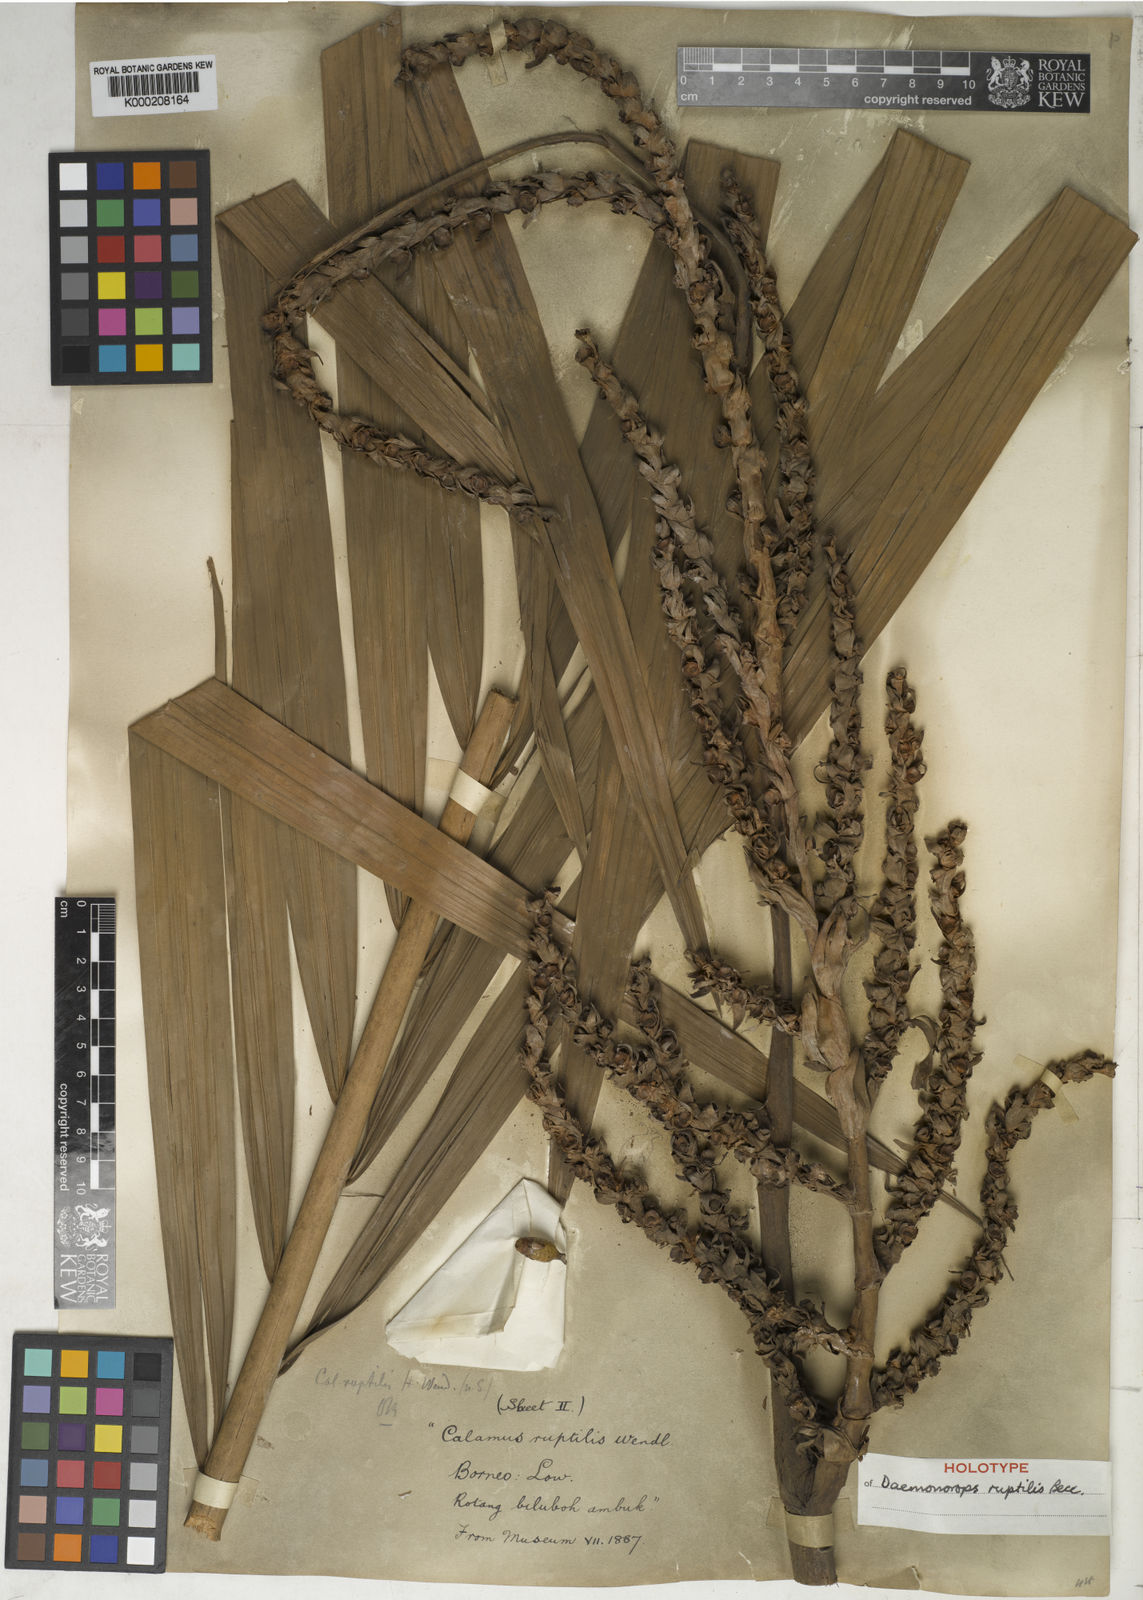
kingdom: Plantae
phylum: Tracheophyta
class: Liliopsida
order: Arecales
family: Arecaceae
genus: Calamus
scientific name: Calamus ruptilis
